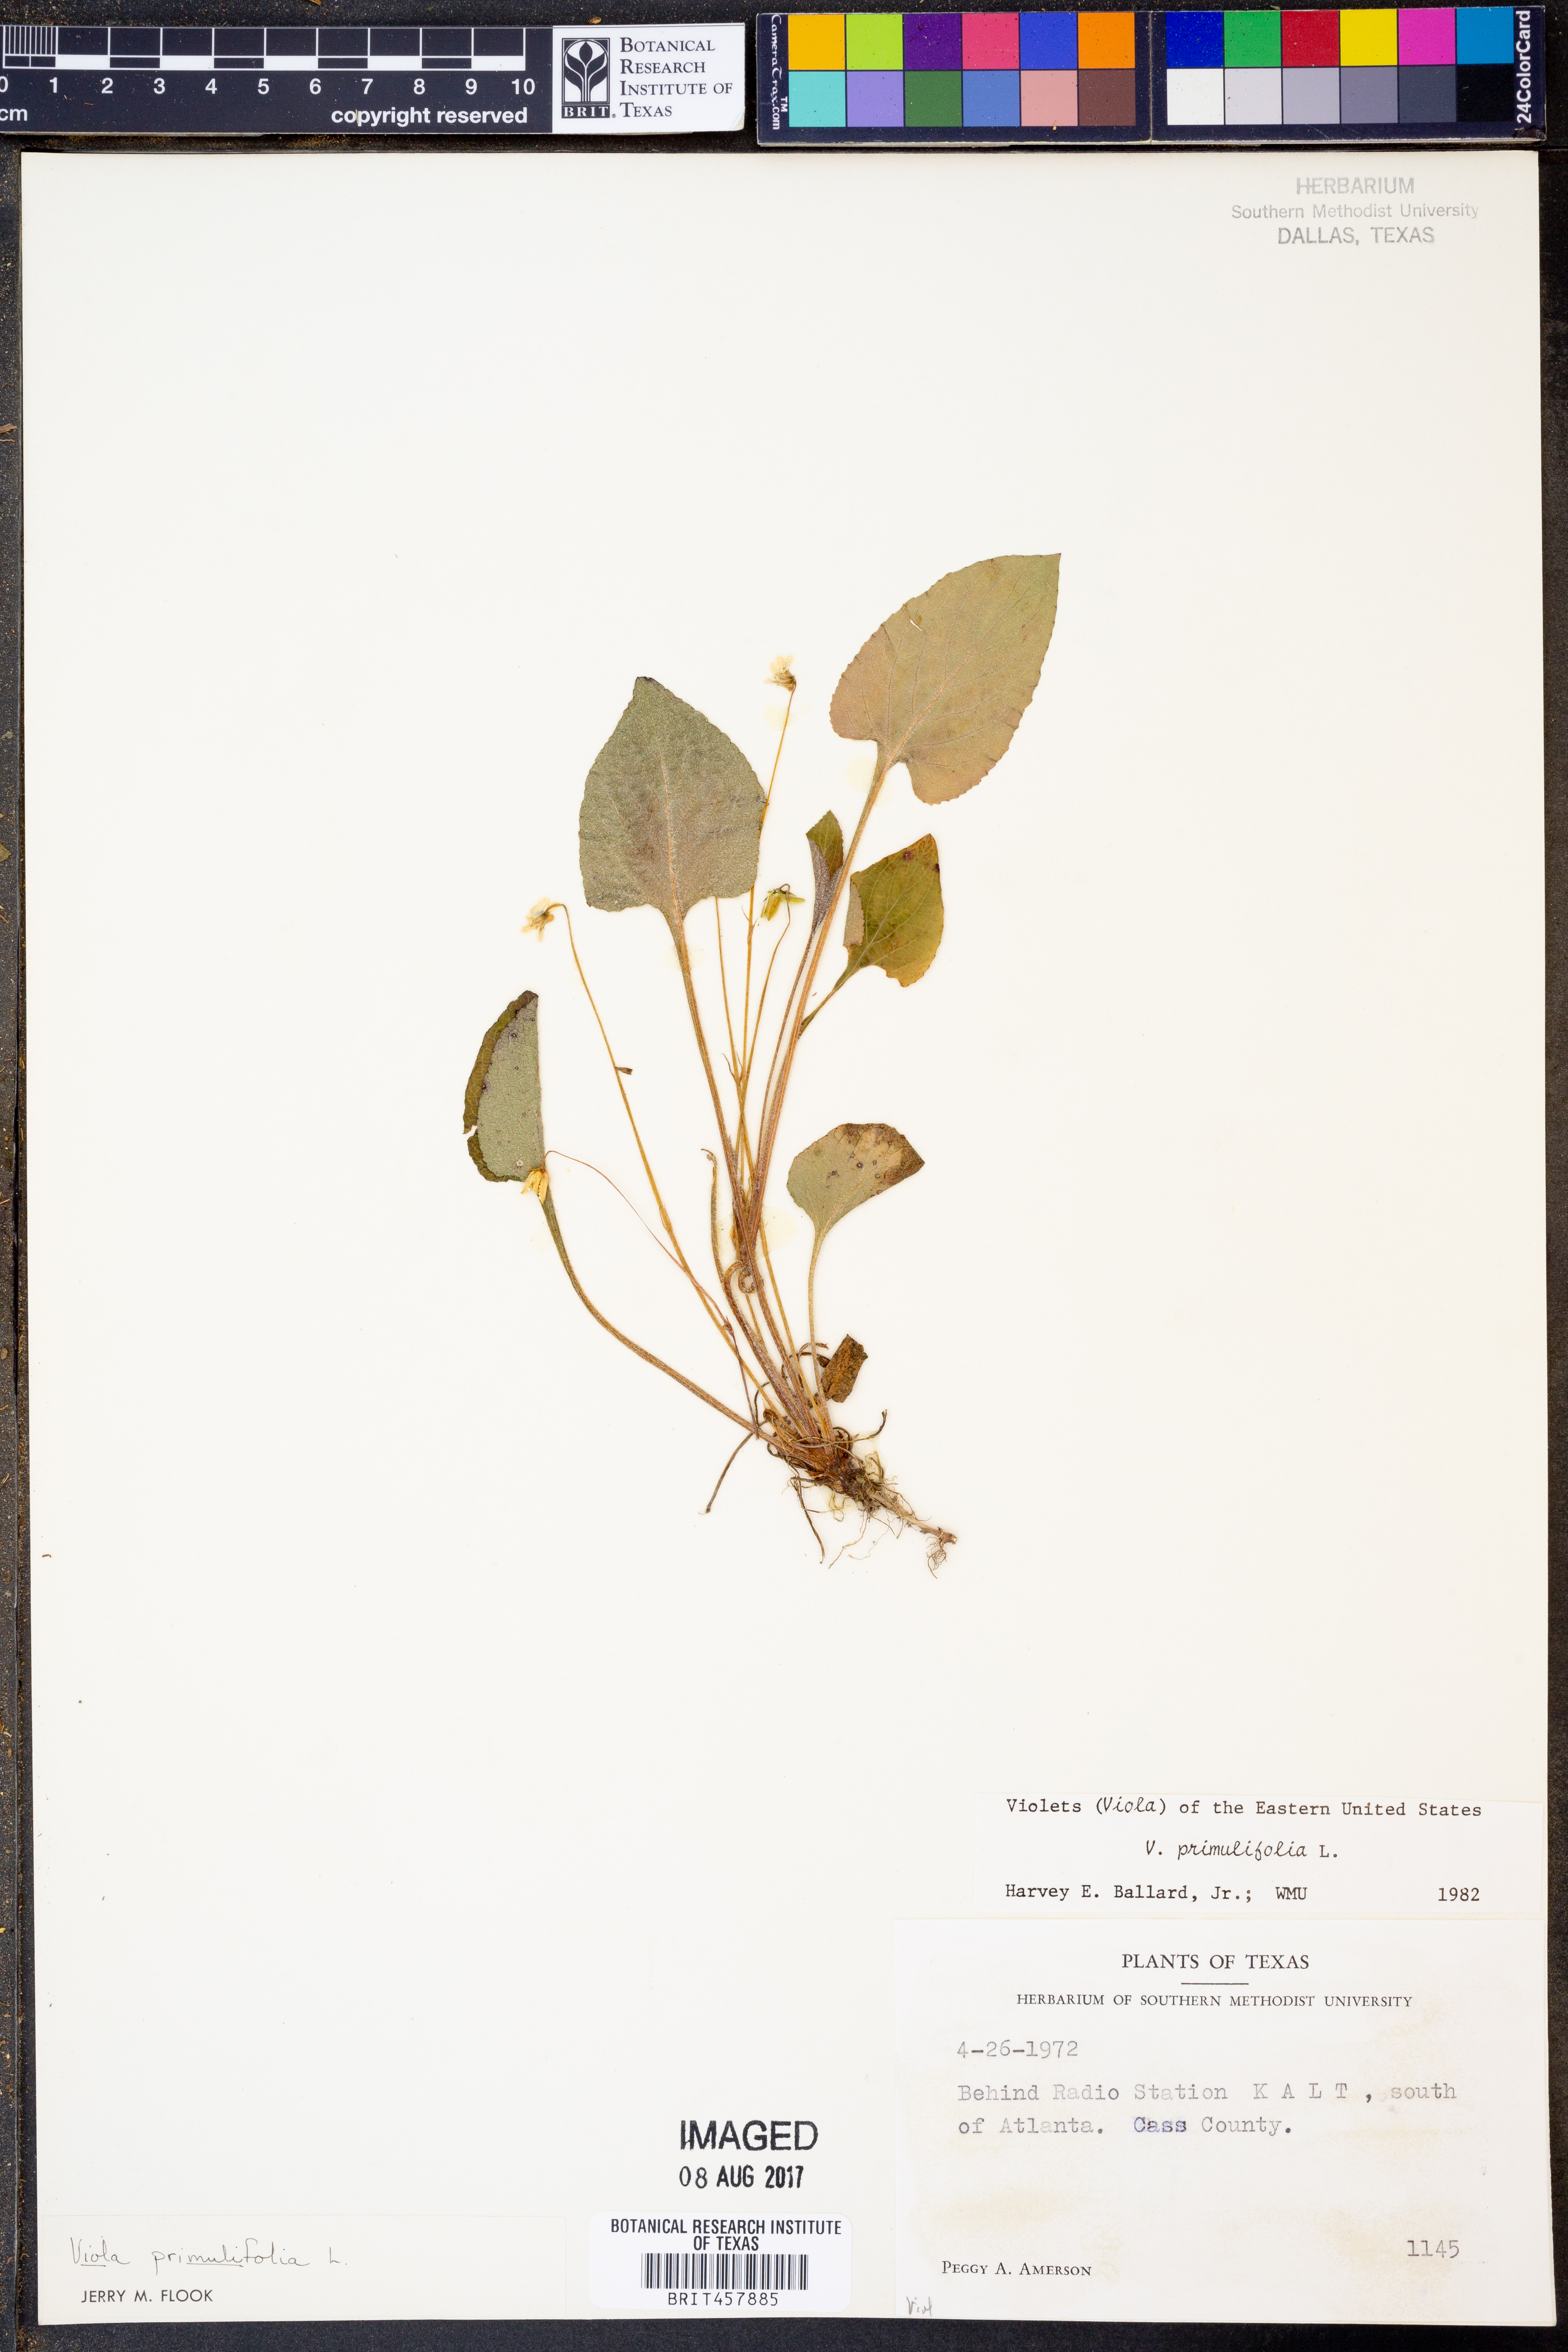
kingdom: Plantae
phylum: Tracheophyta
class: Magnoliopsida
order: Malpighiales
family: Violaceae
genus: Viola
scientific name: Viola primulifolia
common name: Primrose-leaf violet
